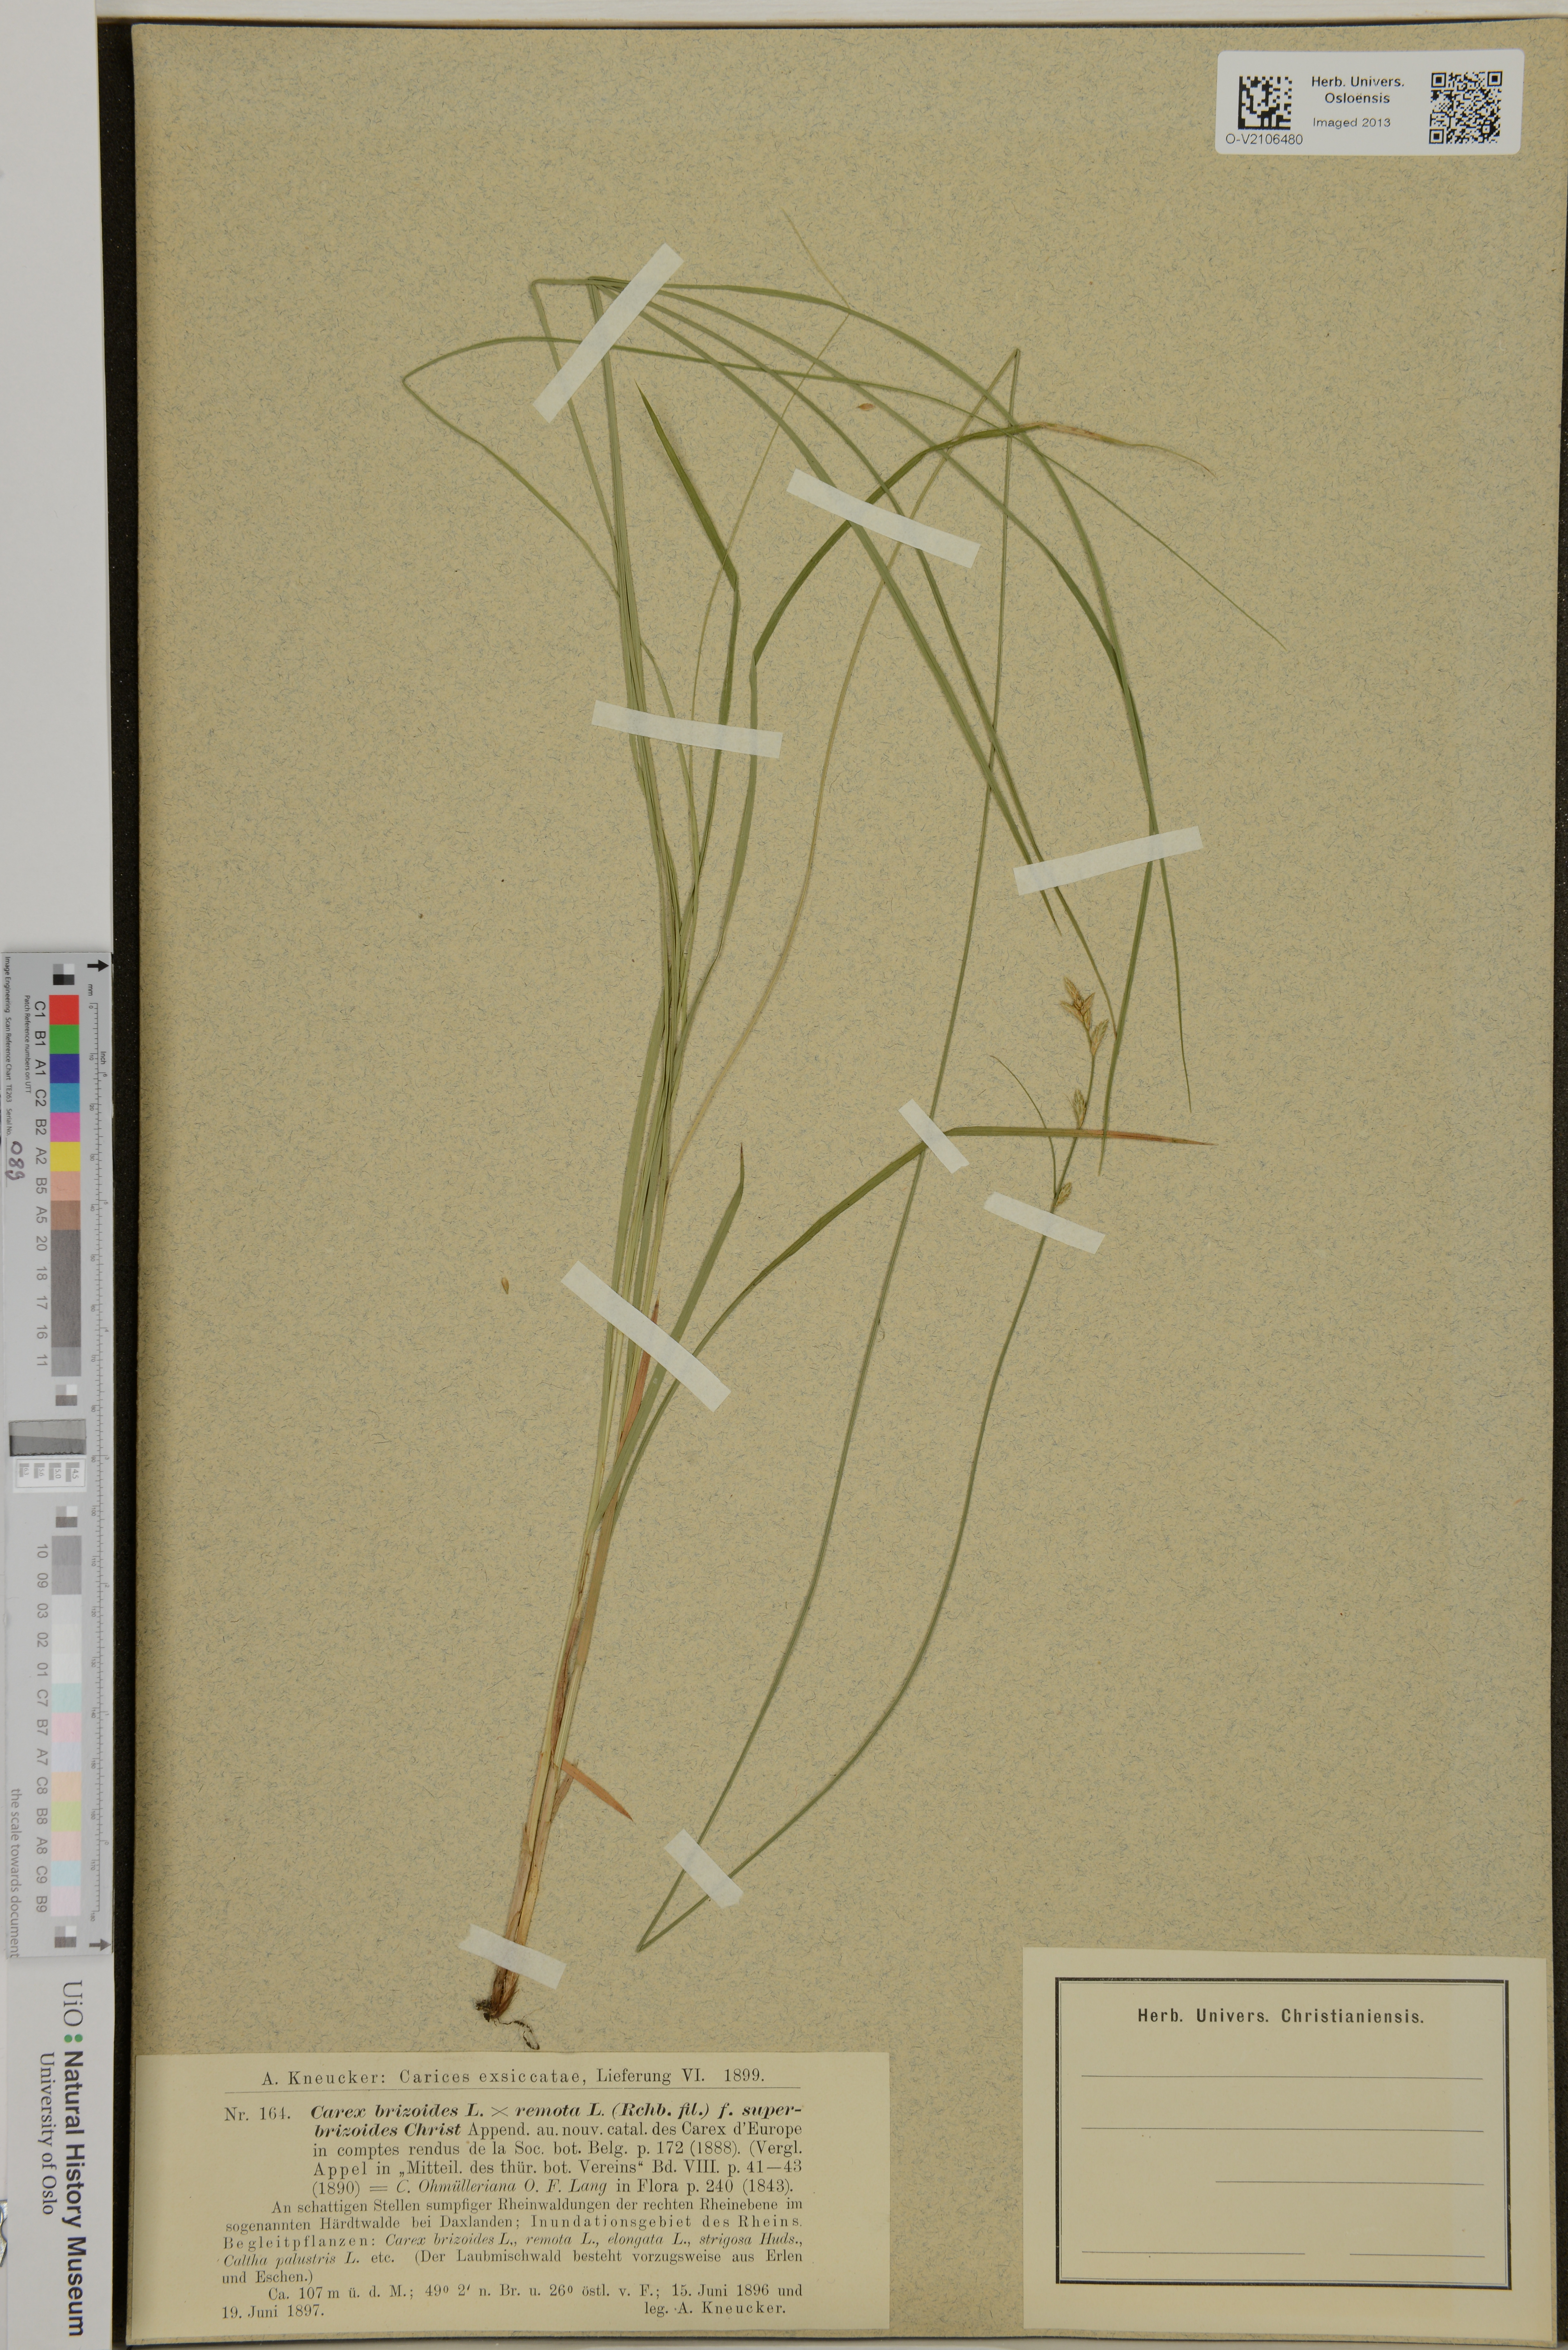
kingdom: Plantae
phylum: Tracheophyta
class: Liliopsida
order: Poales
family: Cyperaceae
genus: Carex
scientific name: Carex
